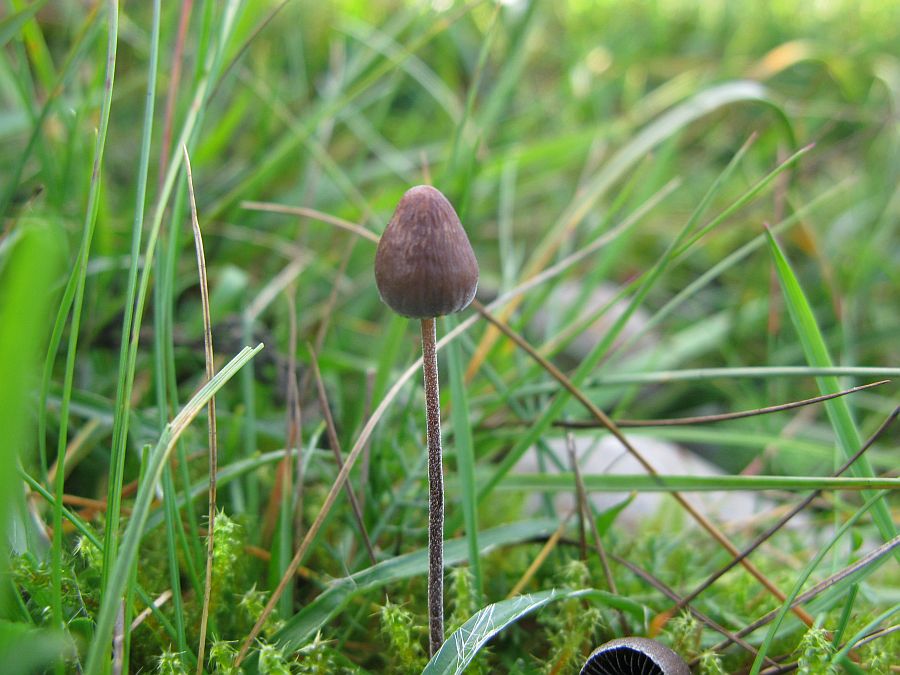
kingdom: Fungi
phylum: Basidiomycota
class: Agaricomycetes
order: Agaricales
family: Bolbitiaceae
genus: Panaeolus
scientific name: Panaeolus acuminatus
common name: høj glanshat
